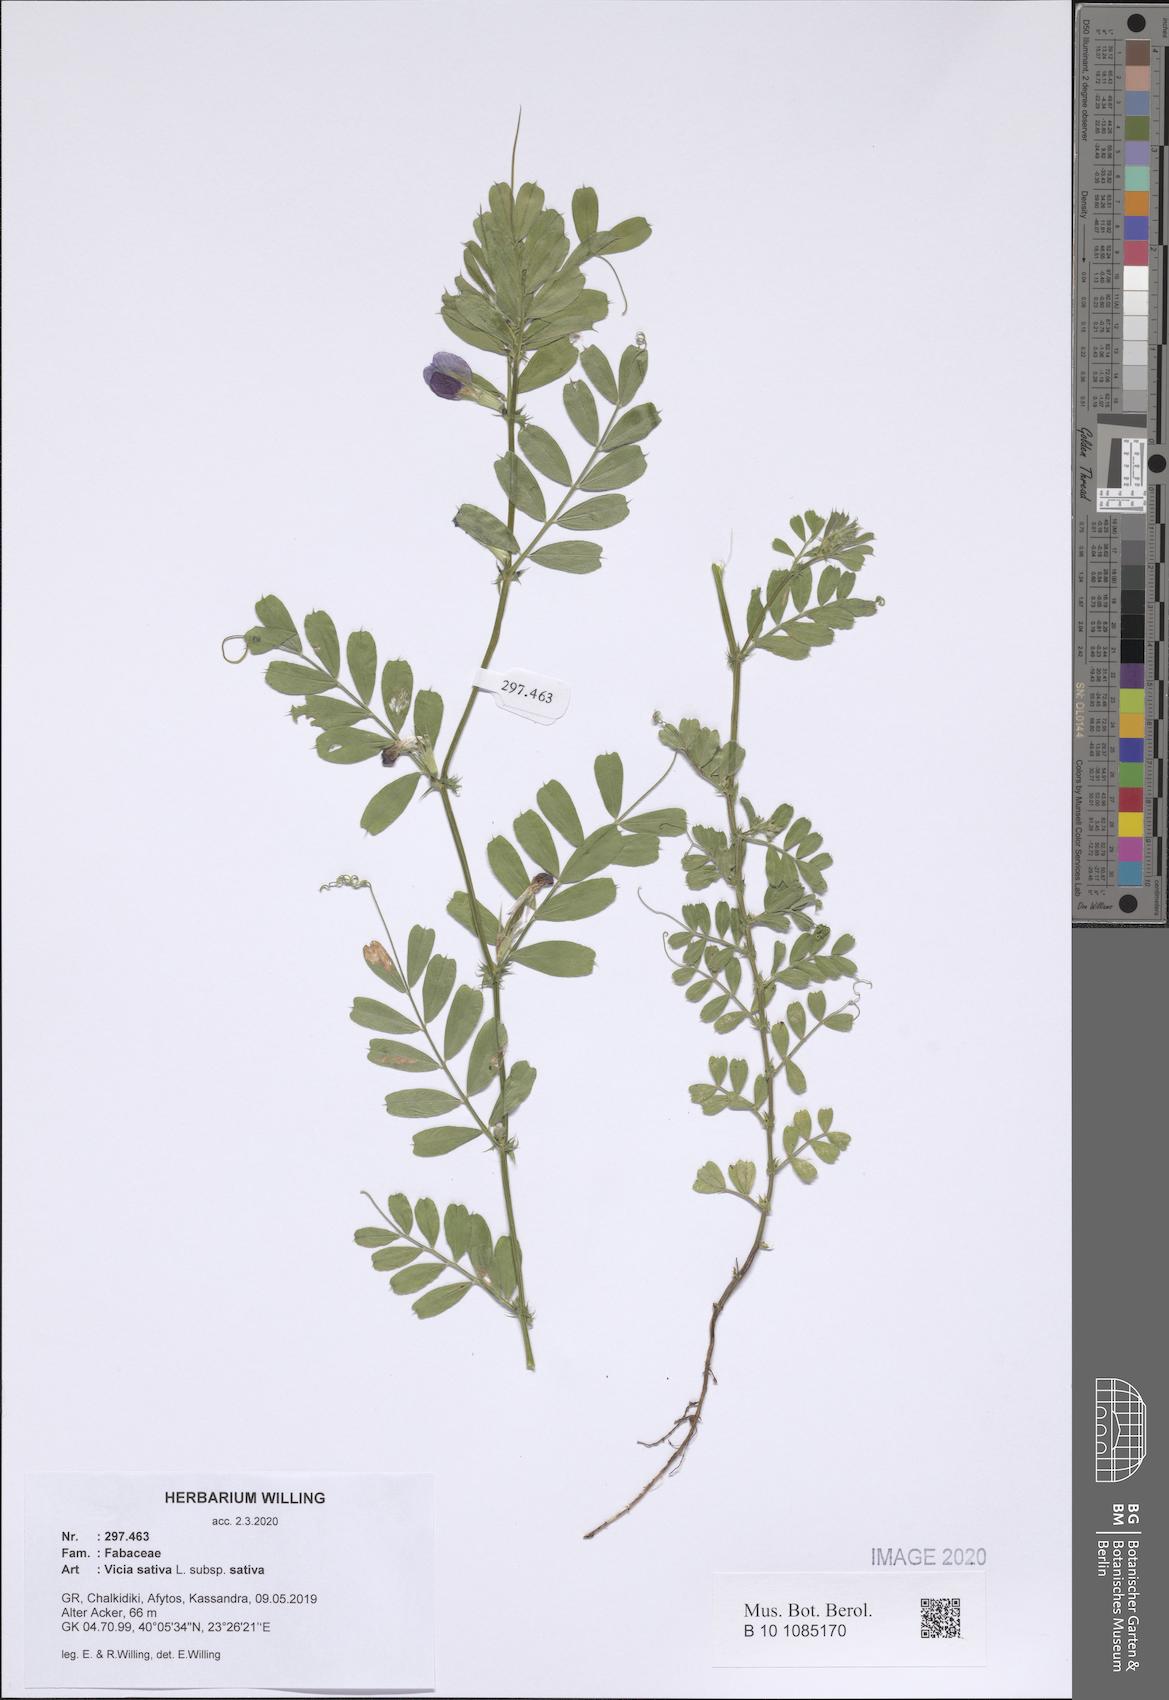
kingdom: Plantae
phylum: Tracheophyta
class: Magnoliopsida
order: Fabales
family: Fabaceae
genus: Vicia
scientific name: Vicia sativa
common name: Garden vetch
